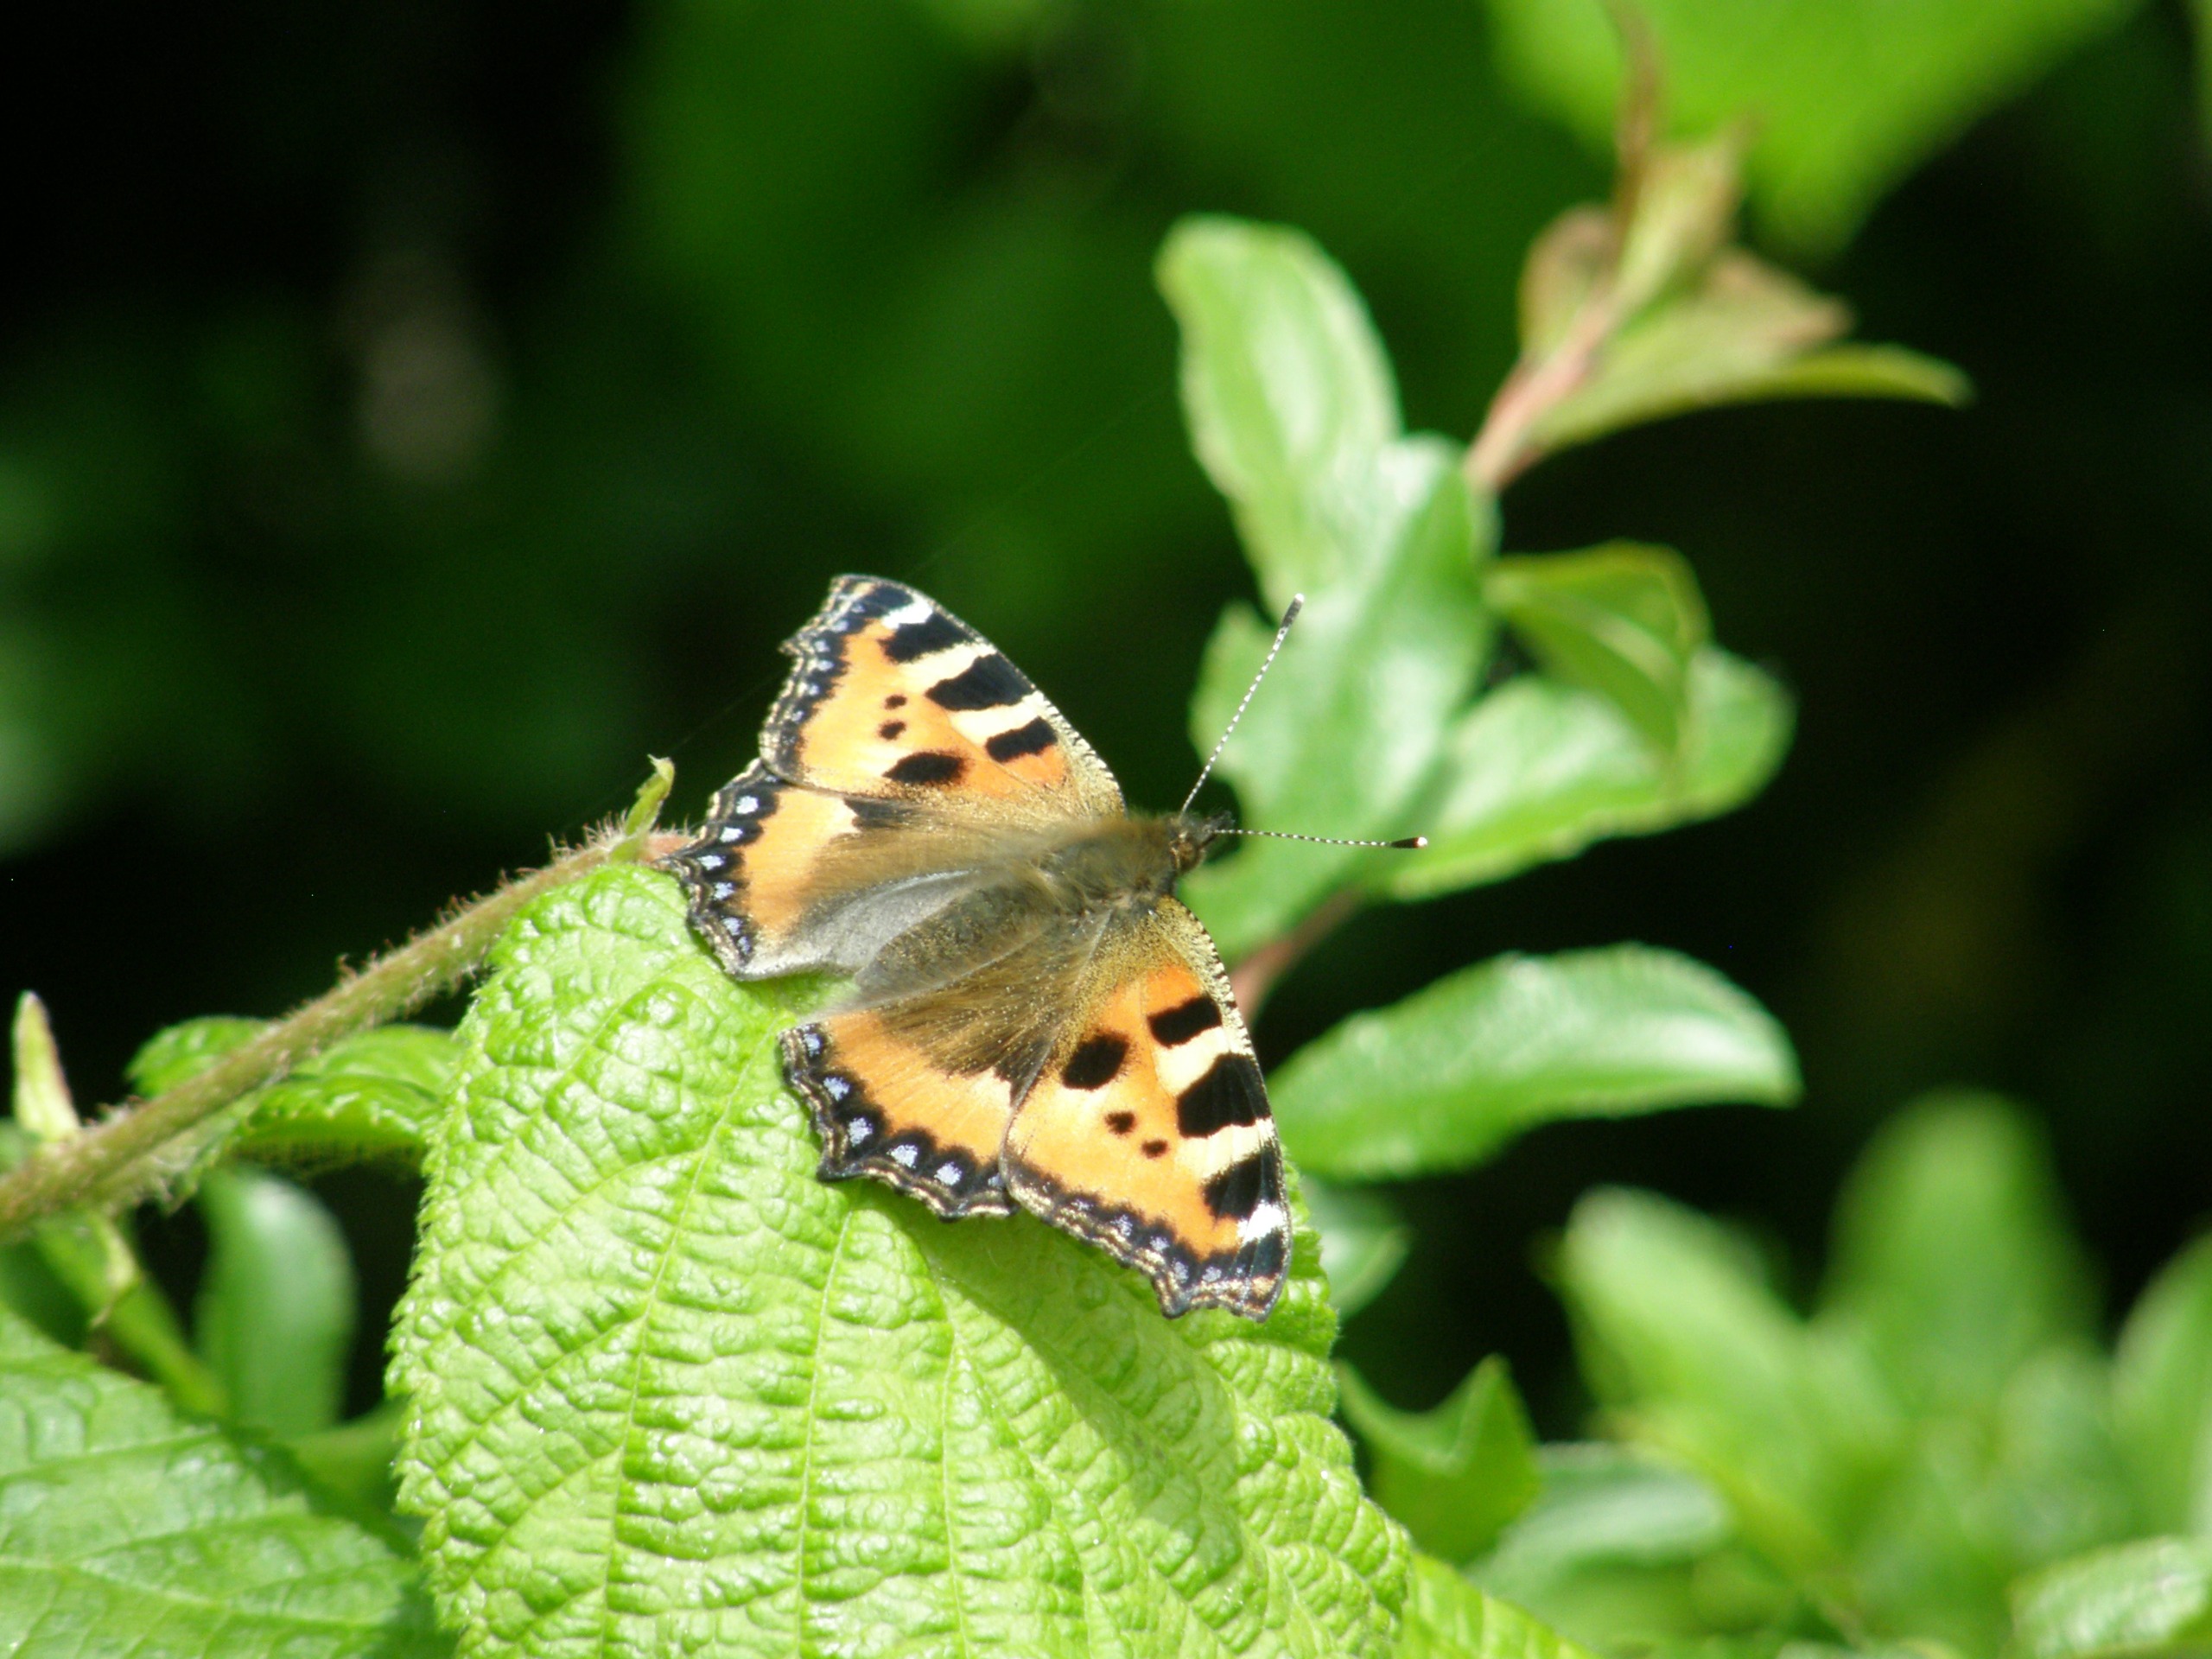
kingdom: Animalia
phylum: Arthropoda
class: Insecta
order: Lepidoptera
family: Nymphalidae
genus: Aglais
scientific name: Aglais urticae
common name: Nældens takvinge
